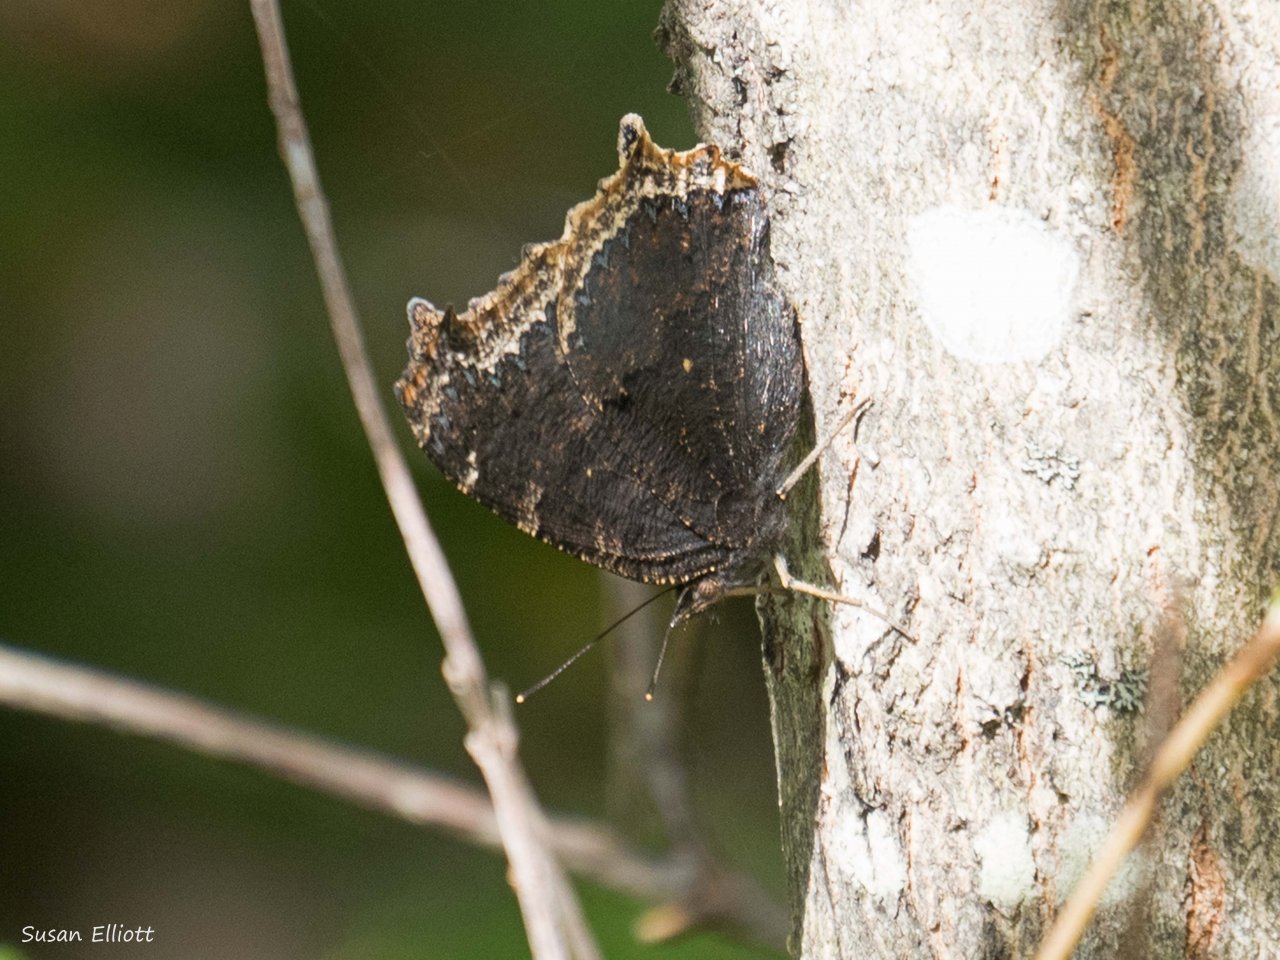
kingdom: Animalia
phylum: Arthropoda
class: Insecta
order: Lepidoptera
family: Nymphalidae
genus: Nymphalis
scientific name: Nymphalis antiopa
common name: Mourning Cloak
